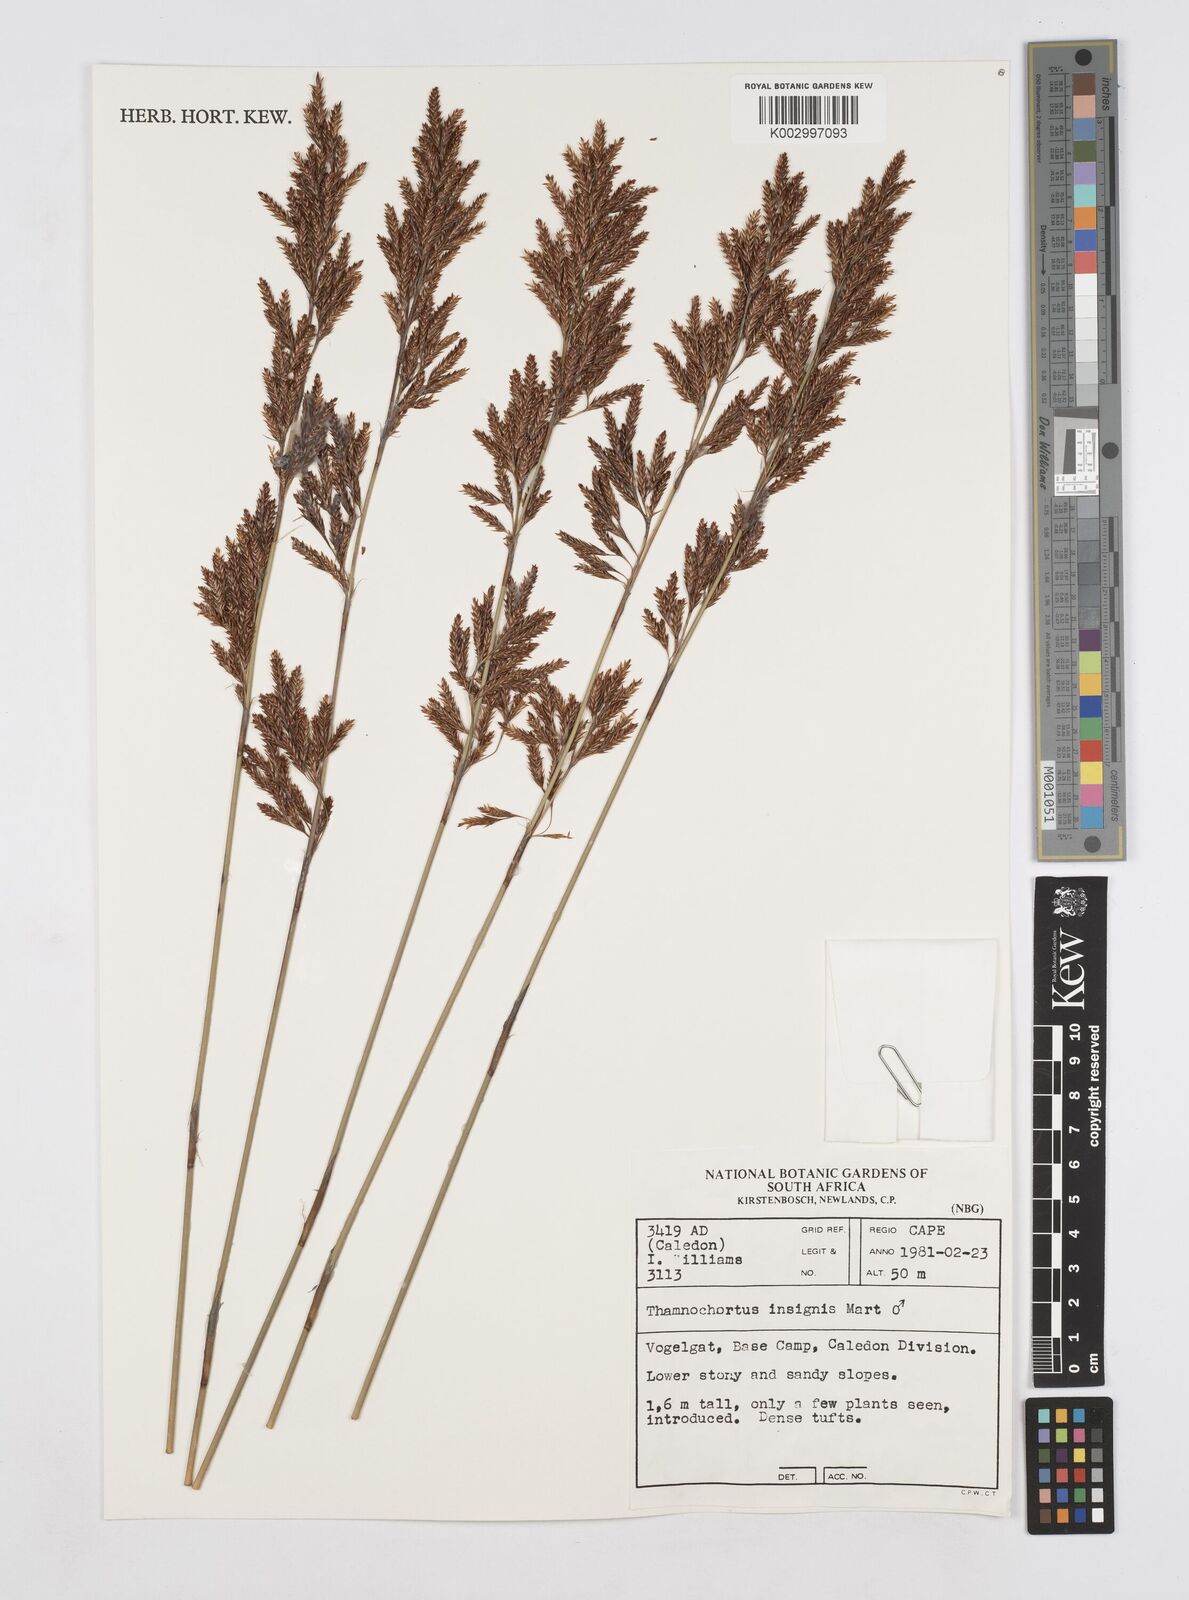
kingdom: Plantae
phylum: Tracheophyta
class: Liliopsida
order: Poales
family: Restionaceae
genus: Thamnochortus
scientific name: Thamnochortus insignis
